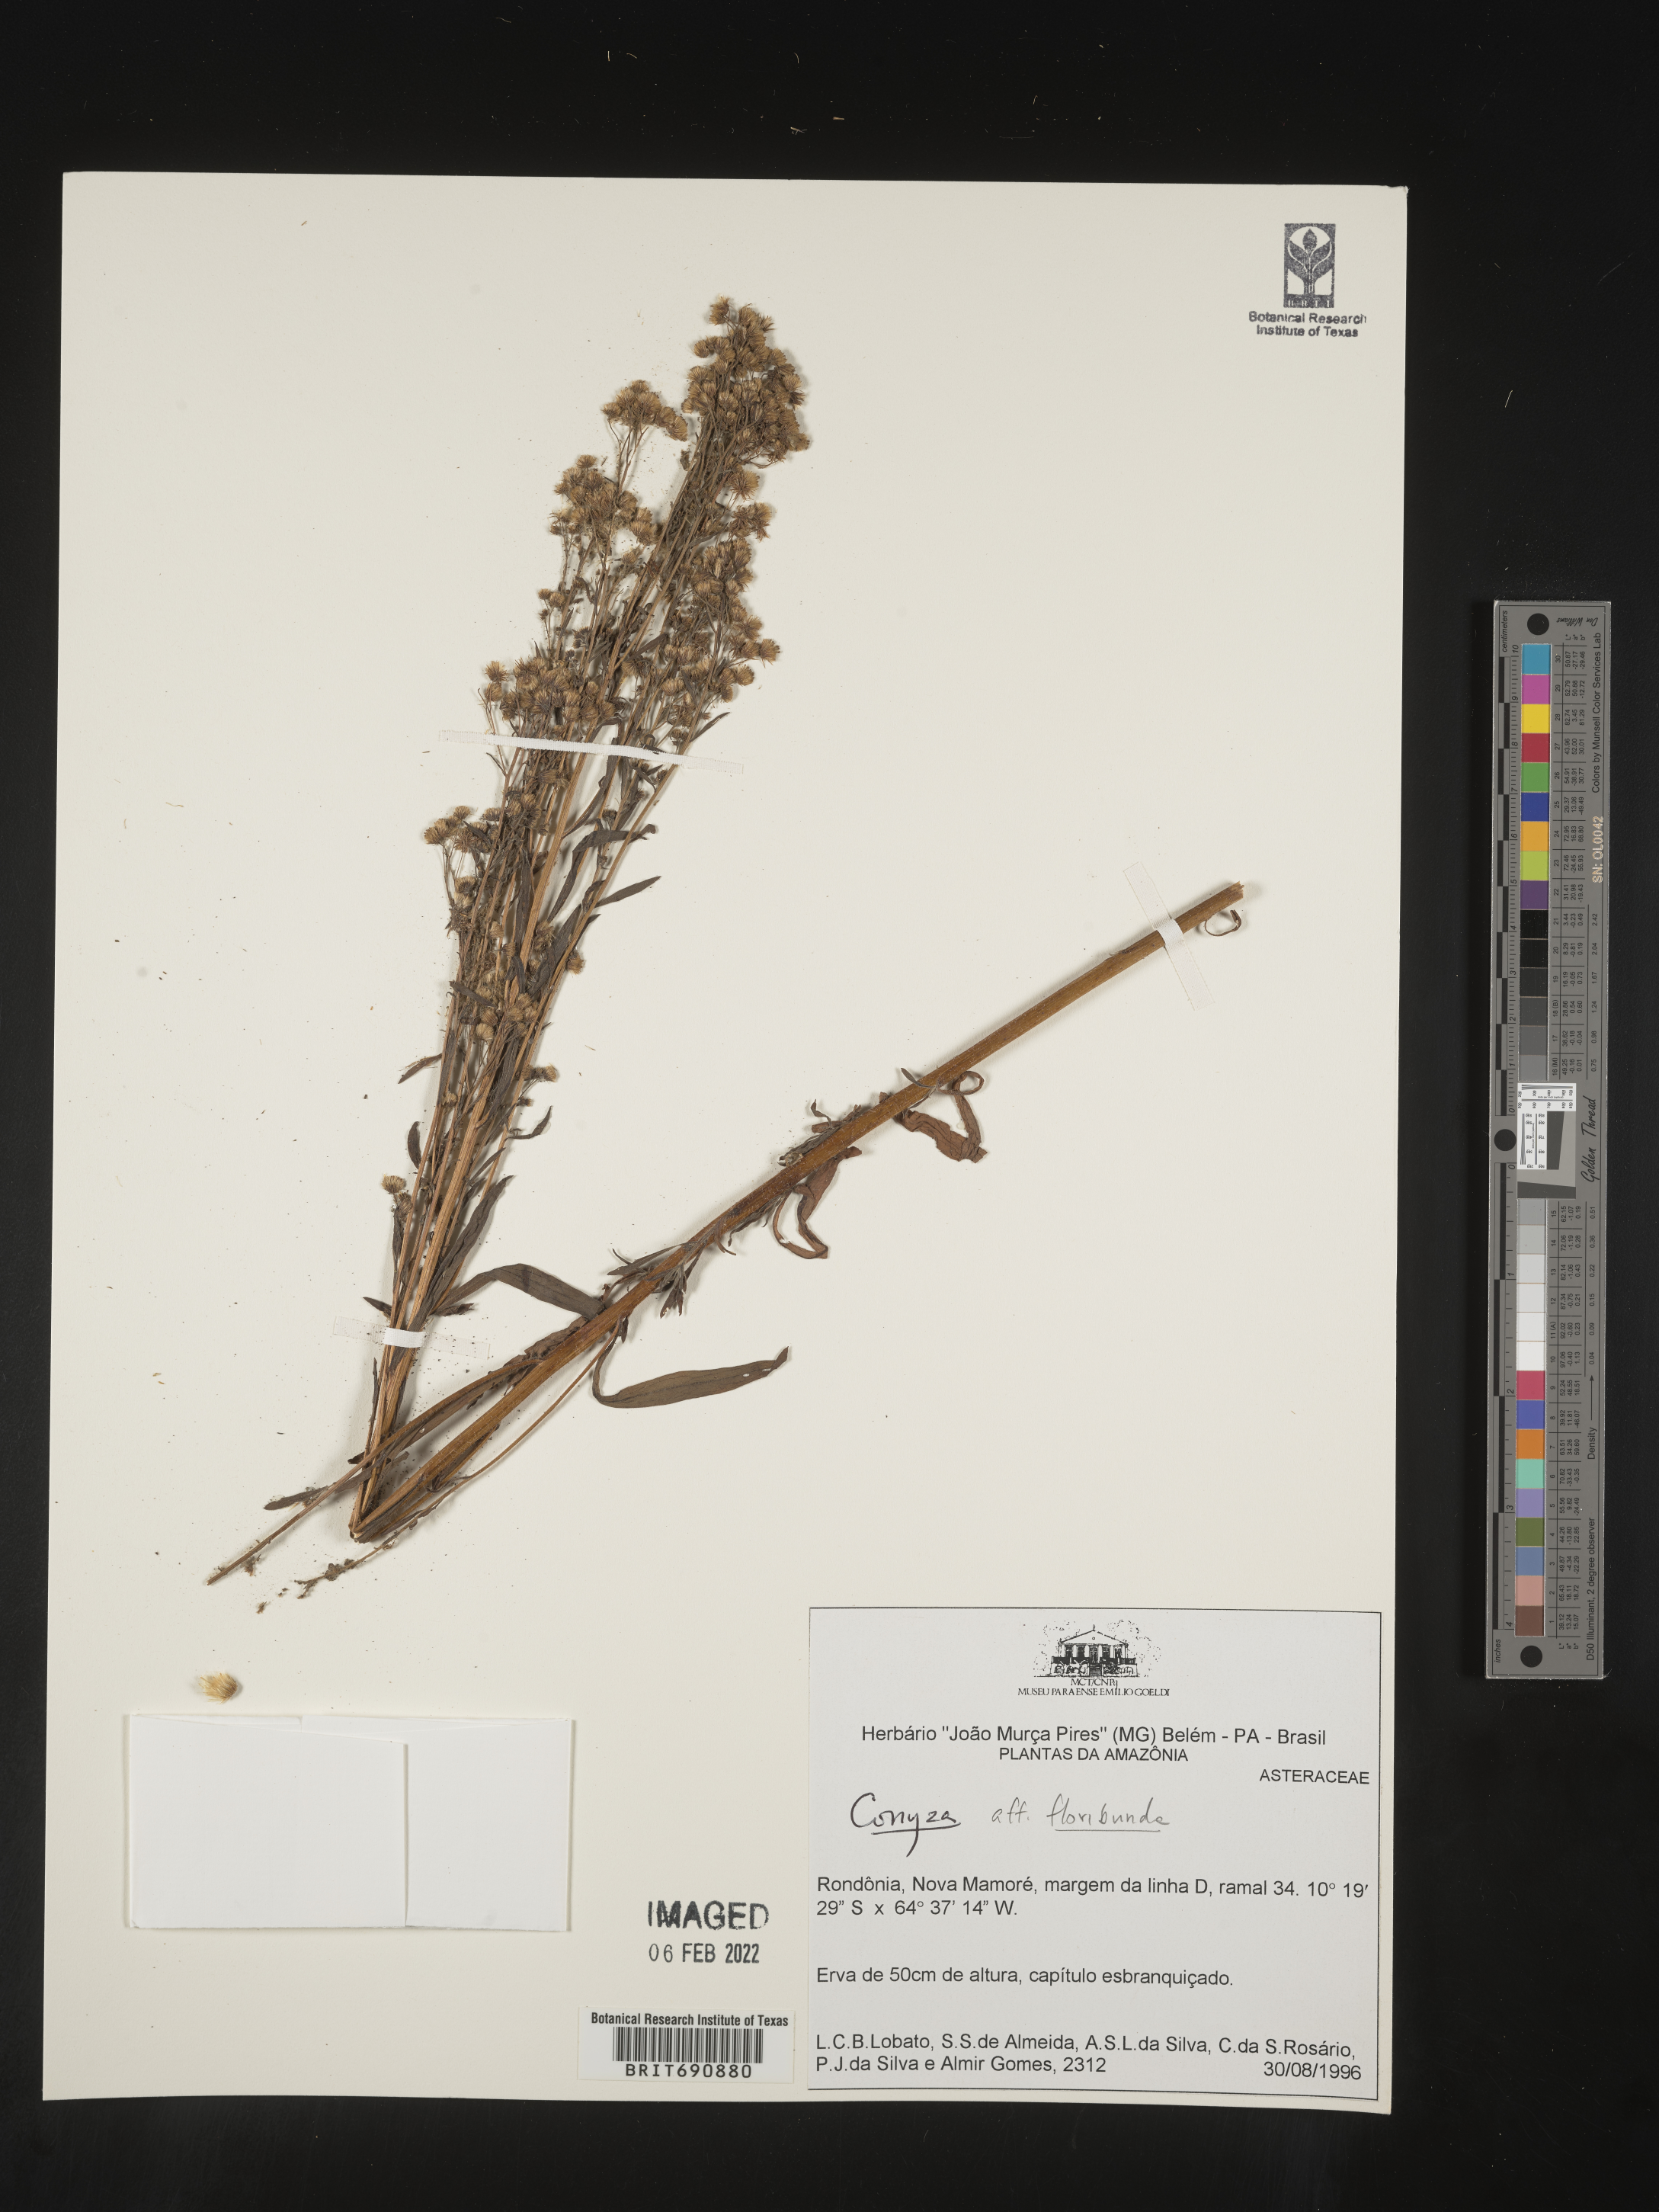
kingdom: Plantae
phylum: Tracheophyta
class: Magnoliopsida
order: Asterales
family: Asteraceae
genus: Conyza
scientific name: Conyza
